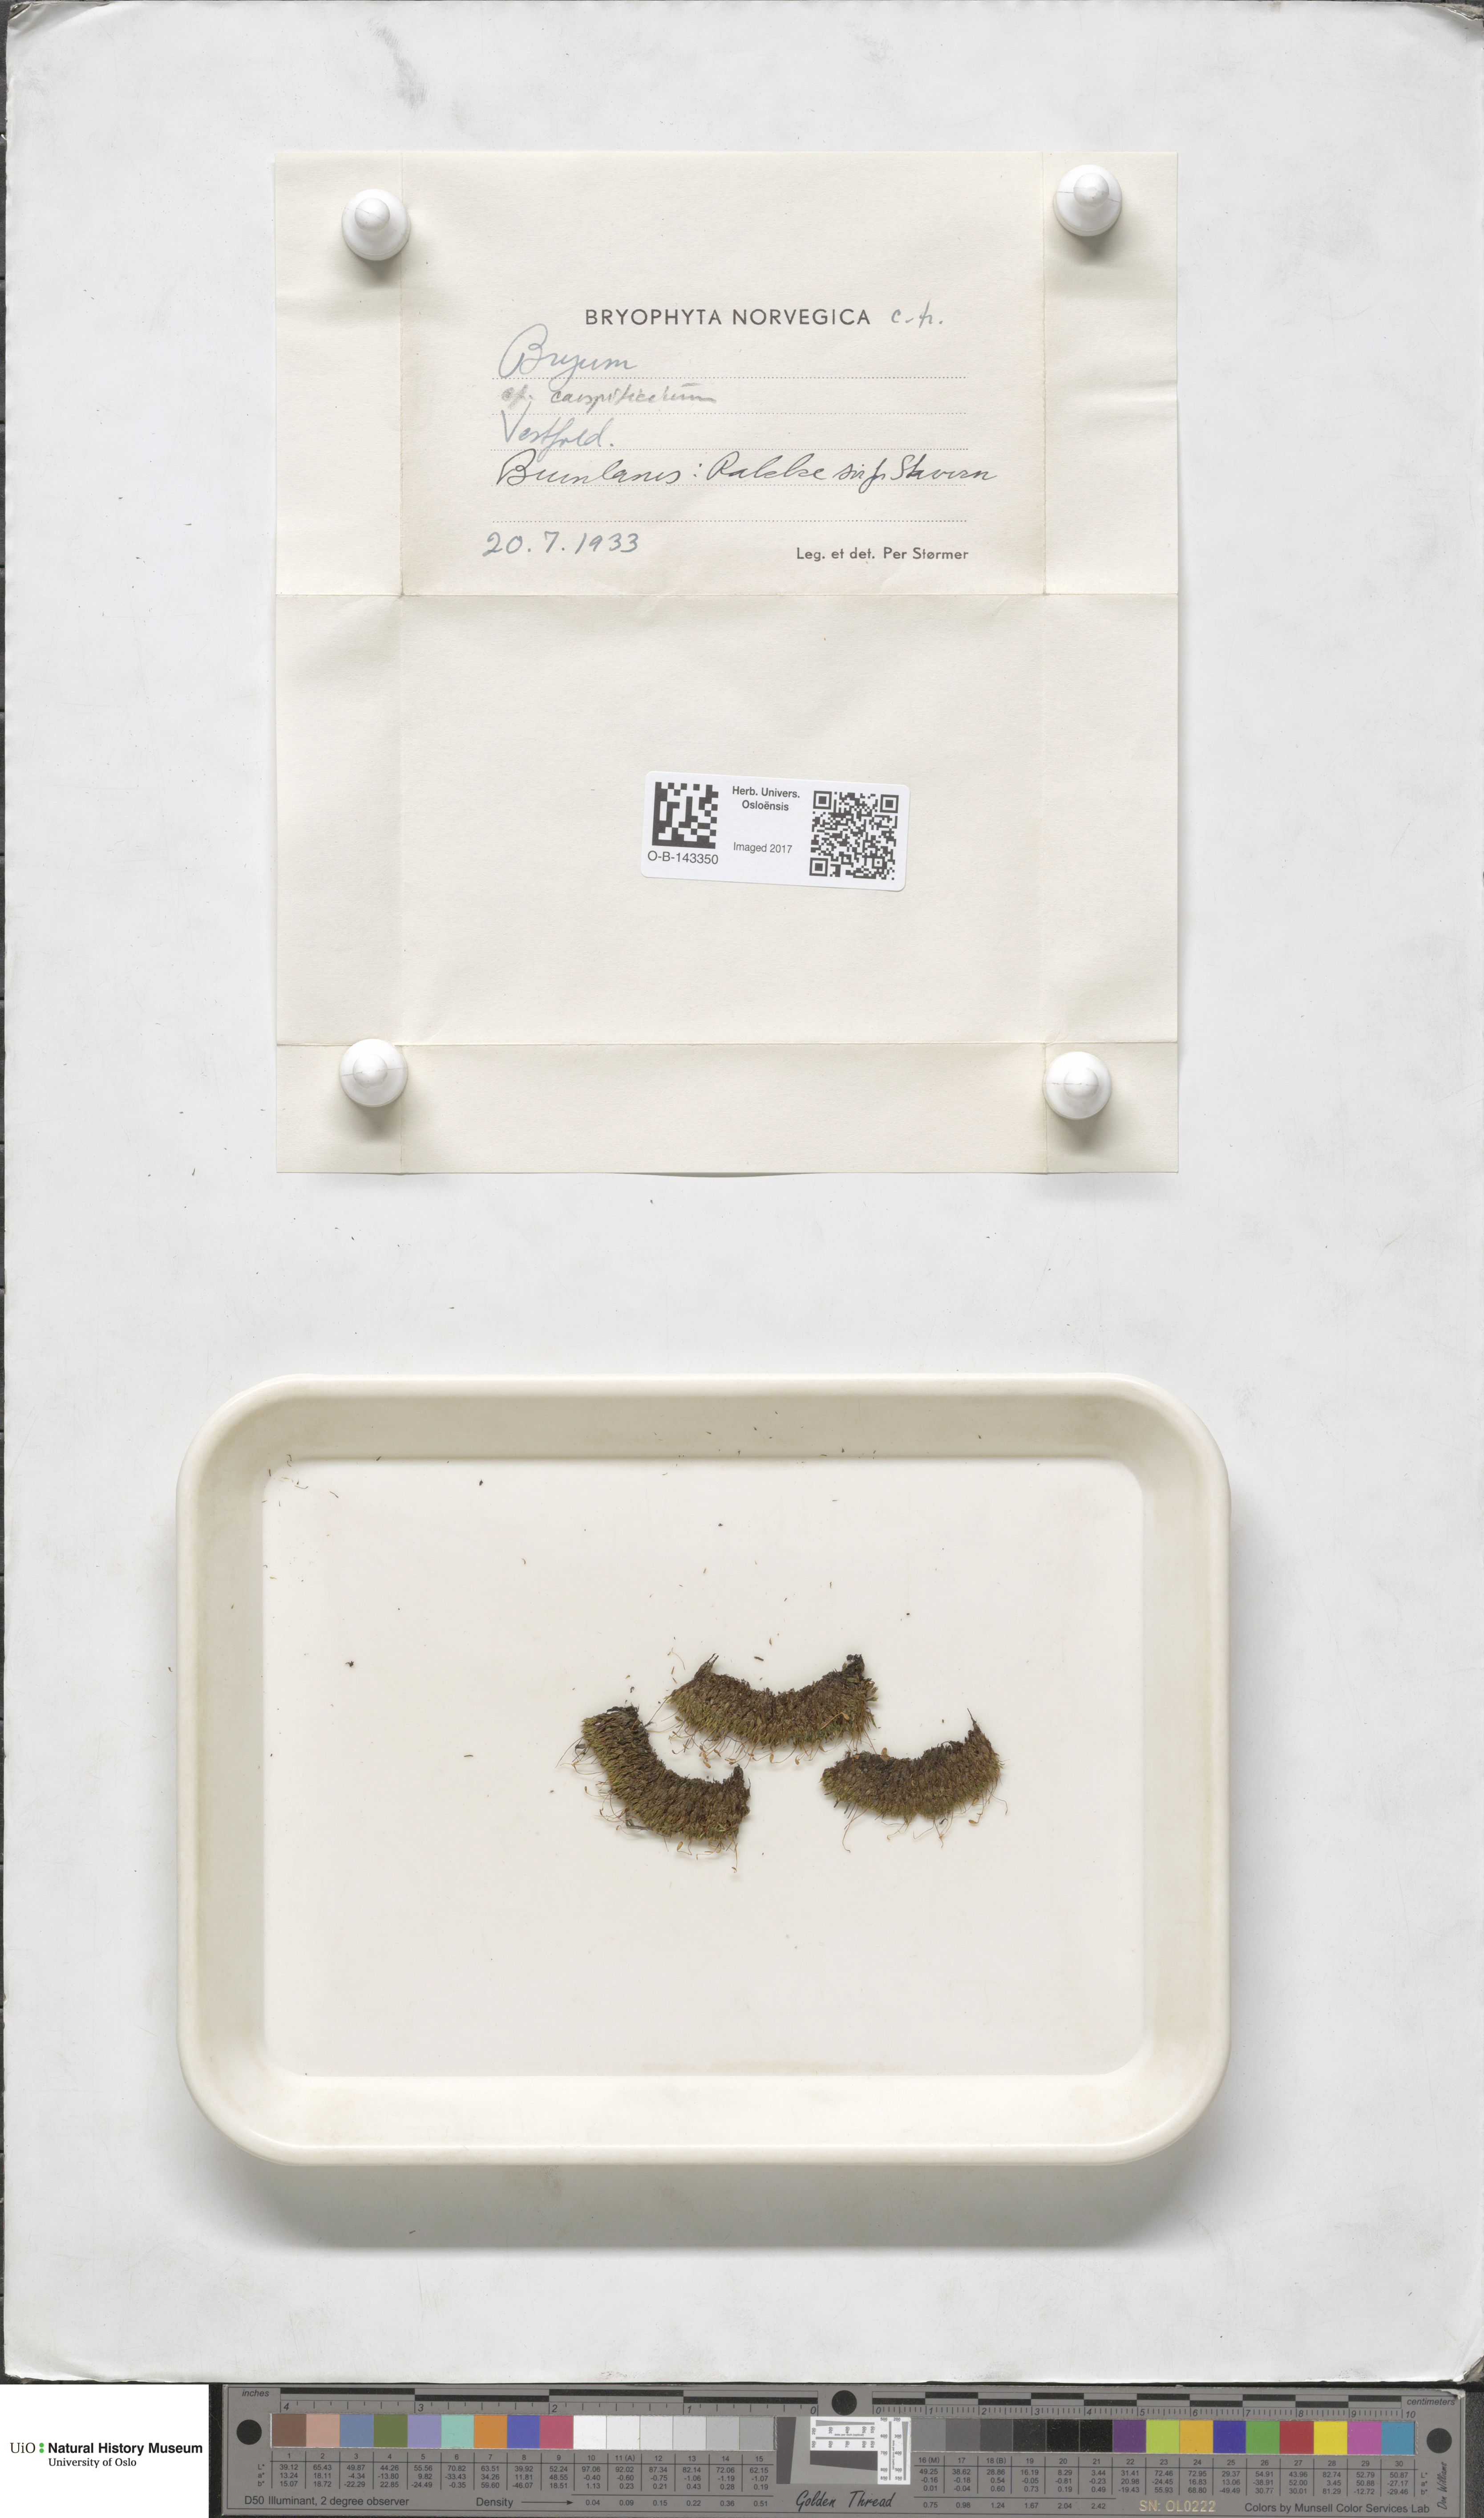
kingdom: Plantae
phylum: Bryophyta
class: Bryopsida
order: Bryales
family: Bryaceae
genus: Bryum
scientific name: Bryum
